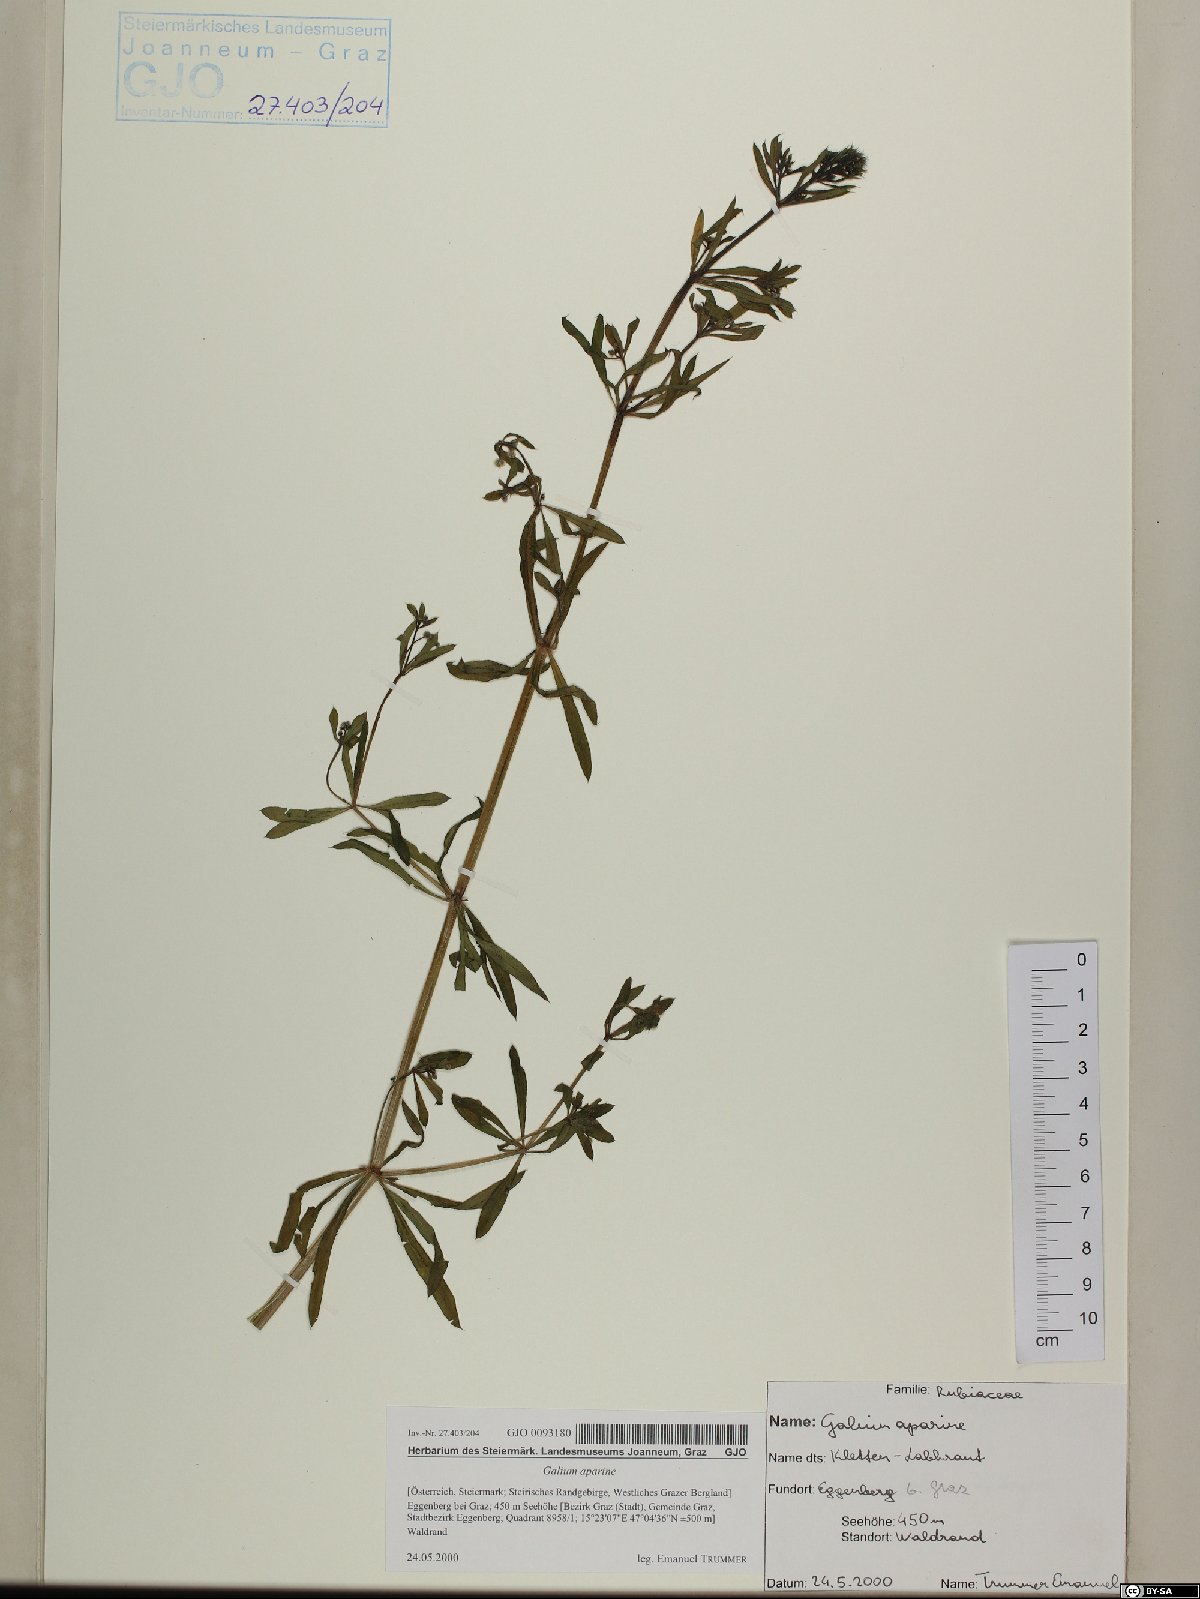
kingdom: Plantae
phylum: Tracheophyta
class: Magnoliopsida
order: Gentianales
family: Rubiaceae
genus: Galium
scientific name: Galium aparine
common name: Cleavers
